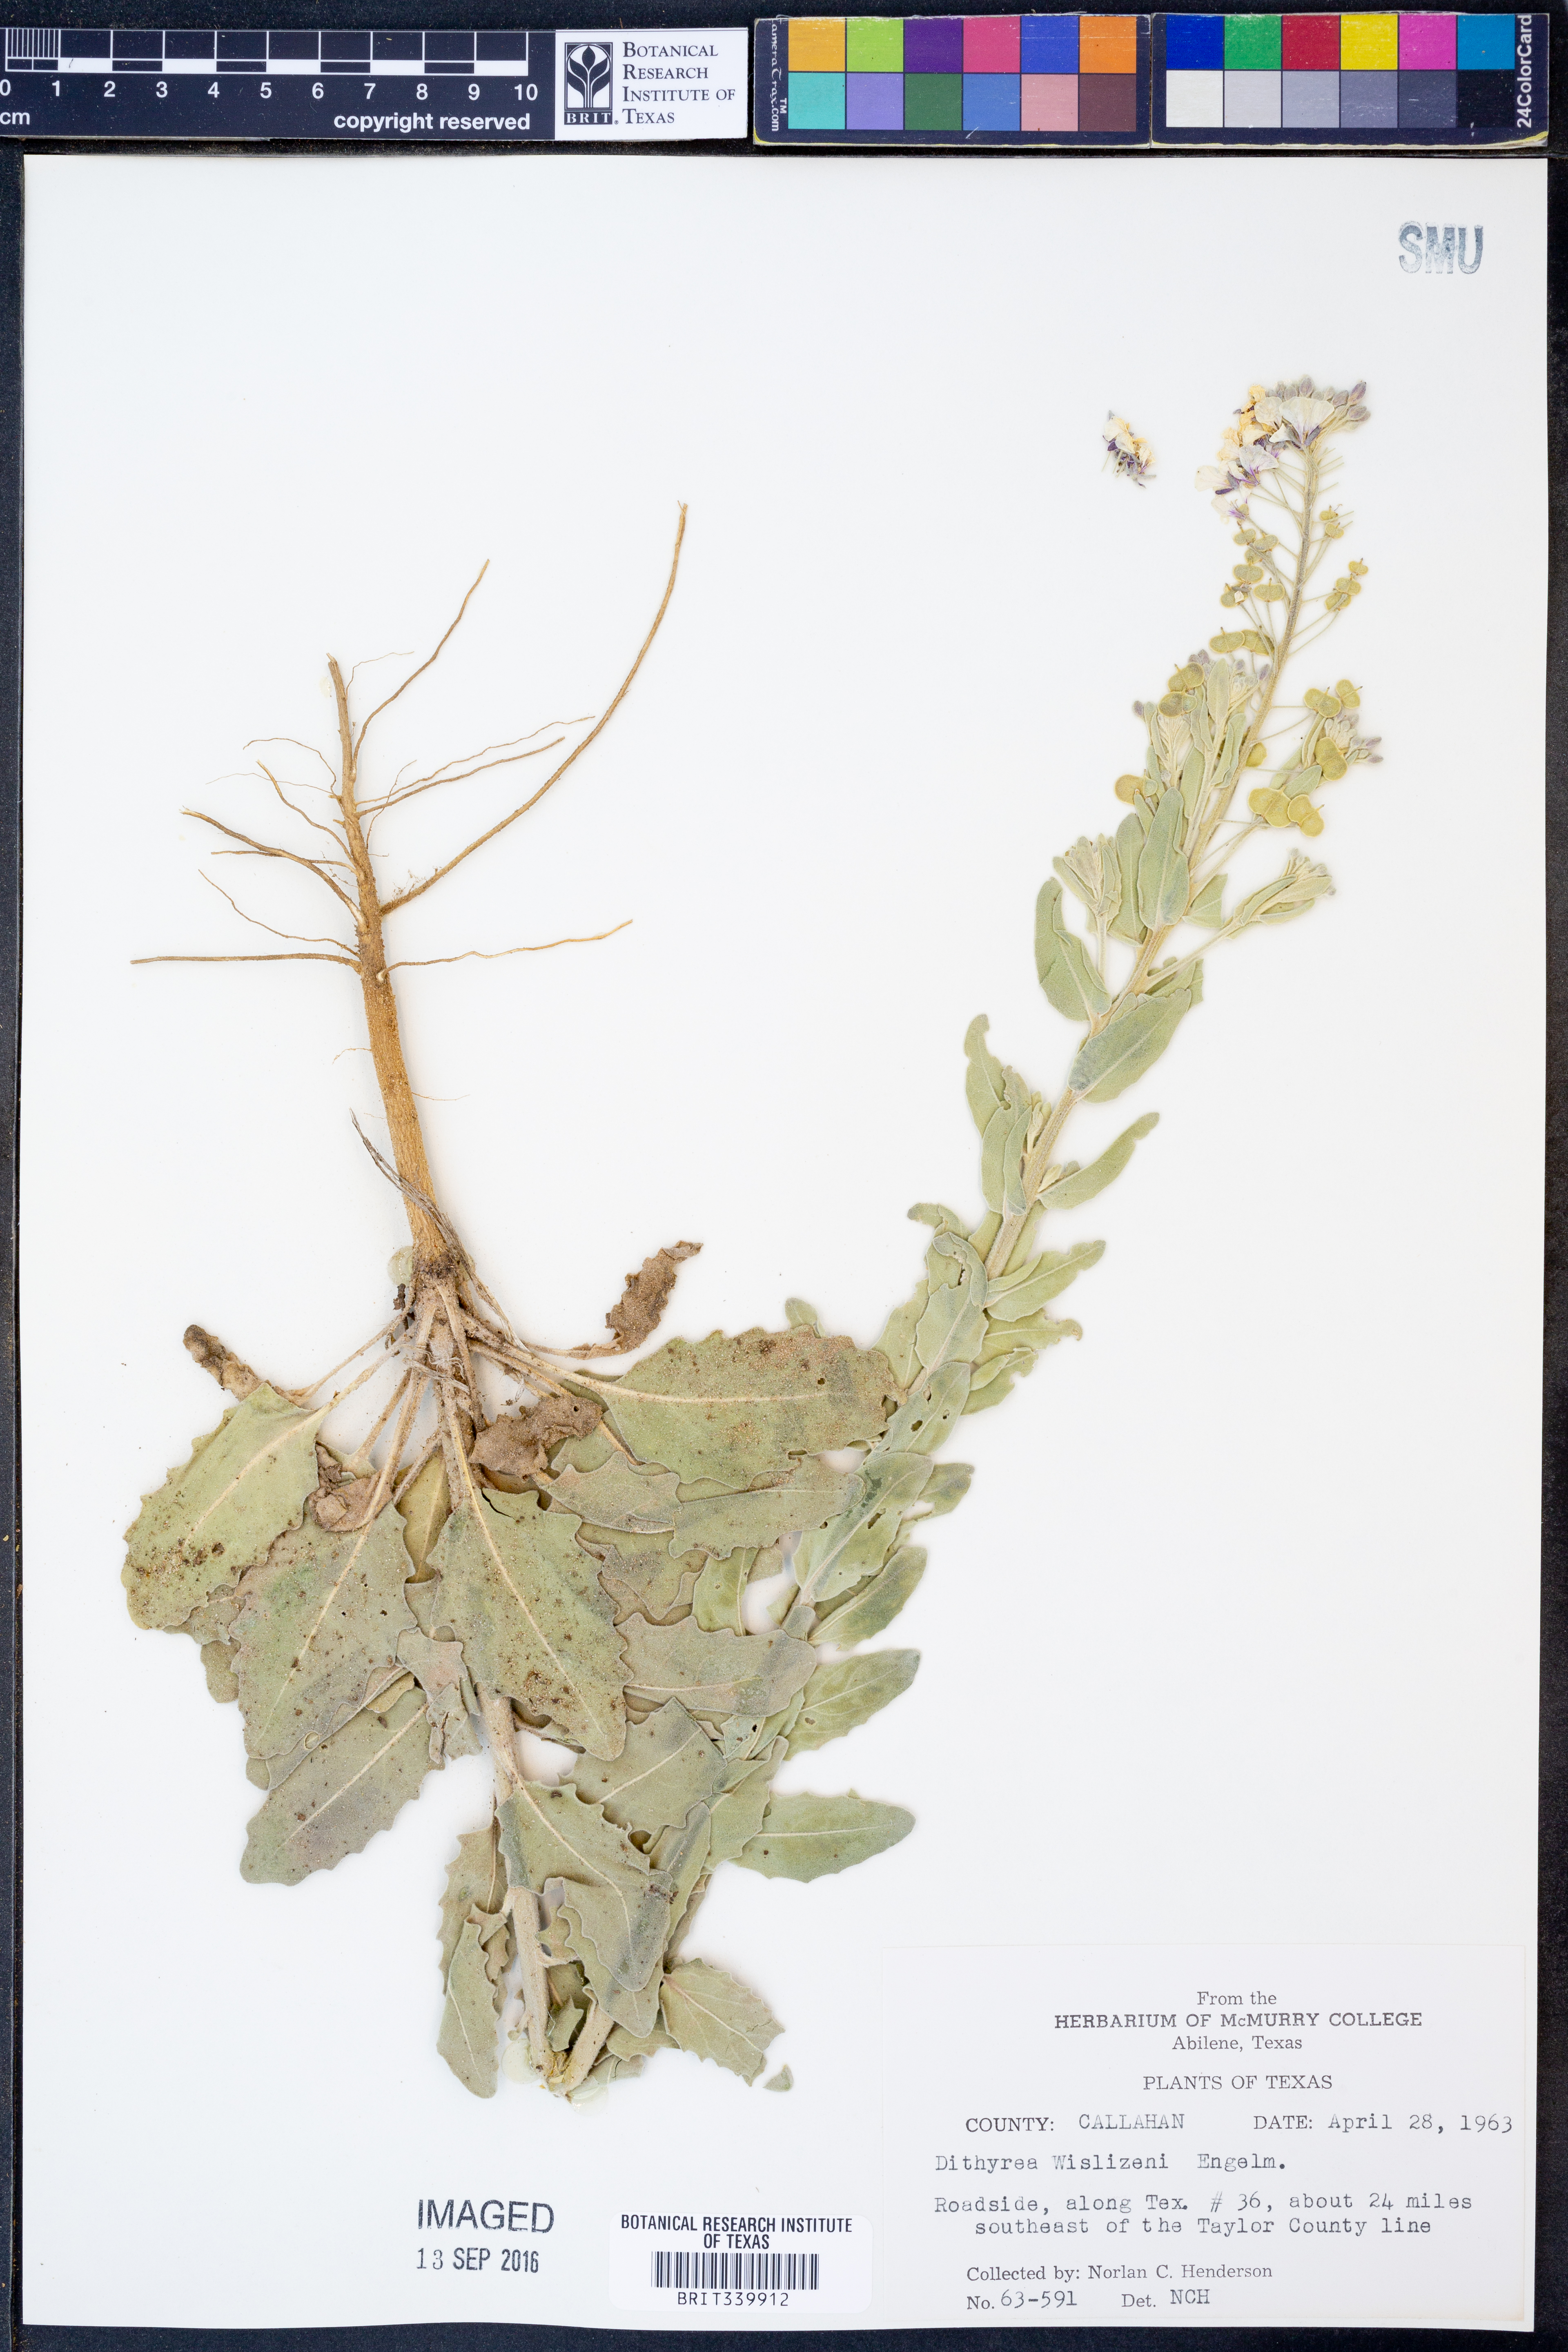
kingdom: Plantae
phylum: Tracheophyta
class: Magnoliopsida
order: Brassicales
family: Brassicaceae
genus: Dimorphocarpa
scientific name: Dimorphocarpa wislizenii
